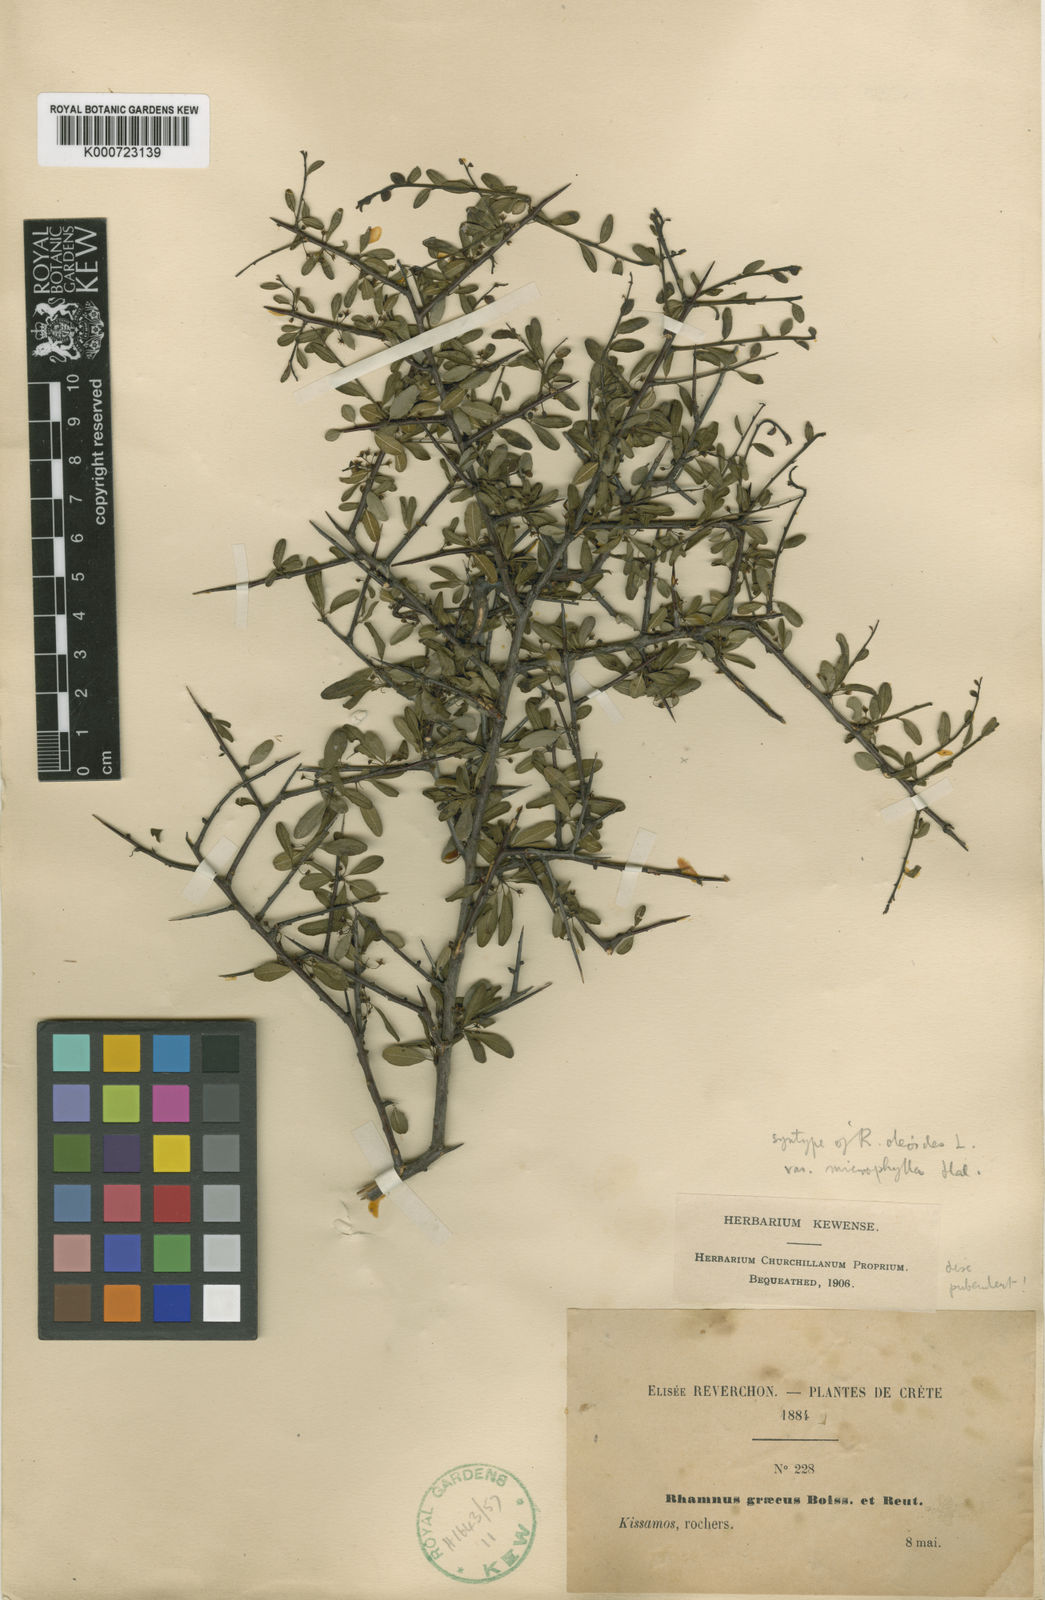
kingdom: Plantae
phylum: Tracheophyta
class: Magnoliopsida
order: Rosales
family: Rhamnaceae
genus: Rhamnus
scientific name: Rhamnus oleoides
